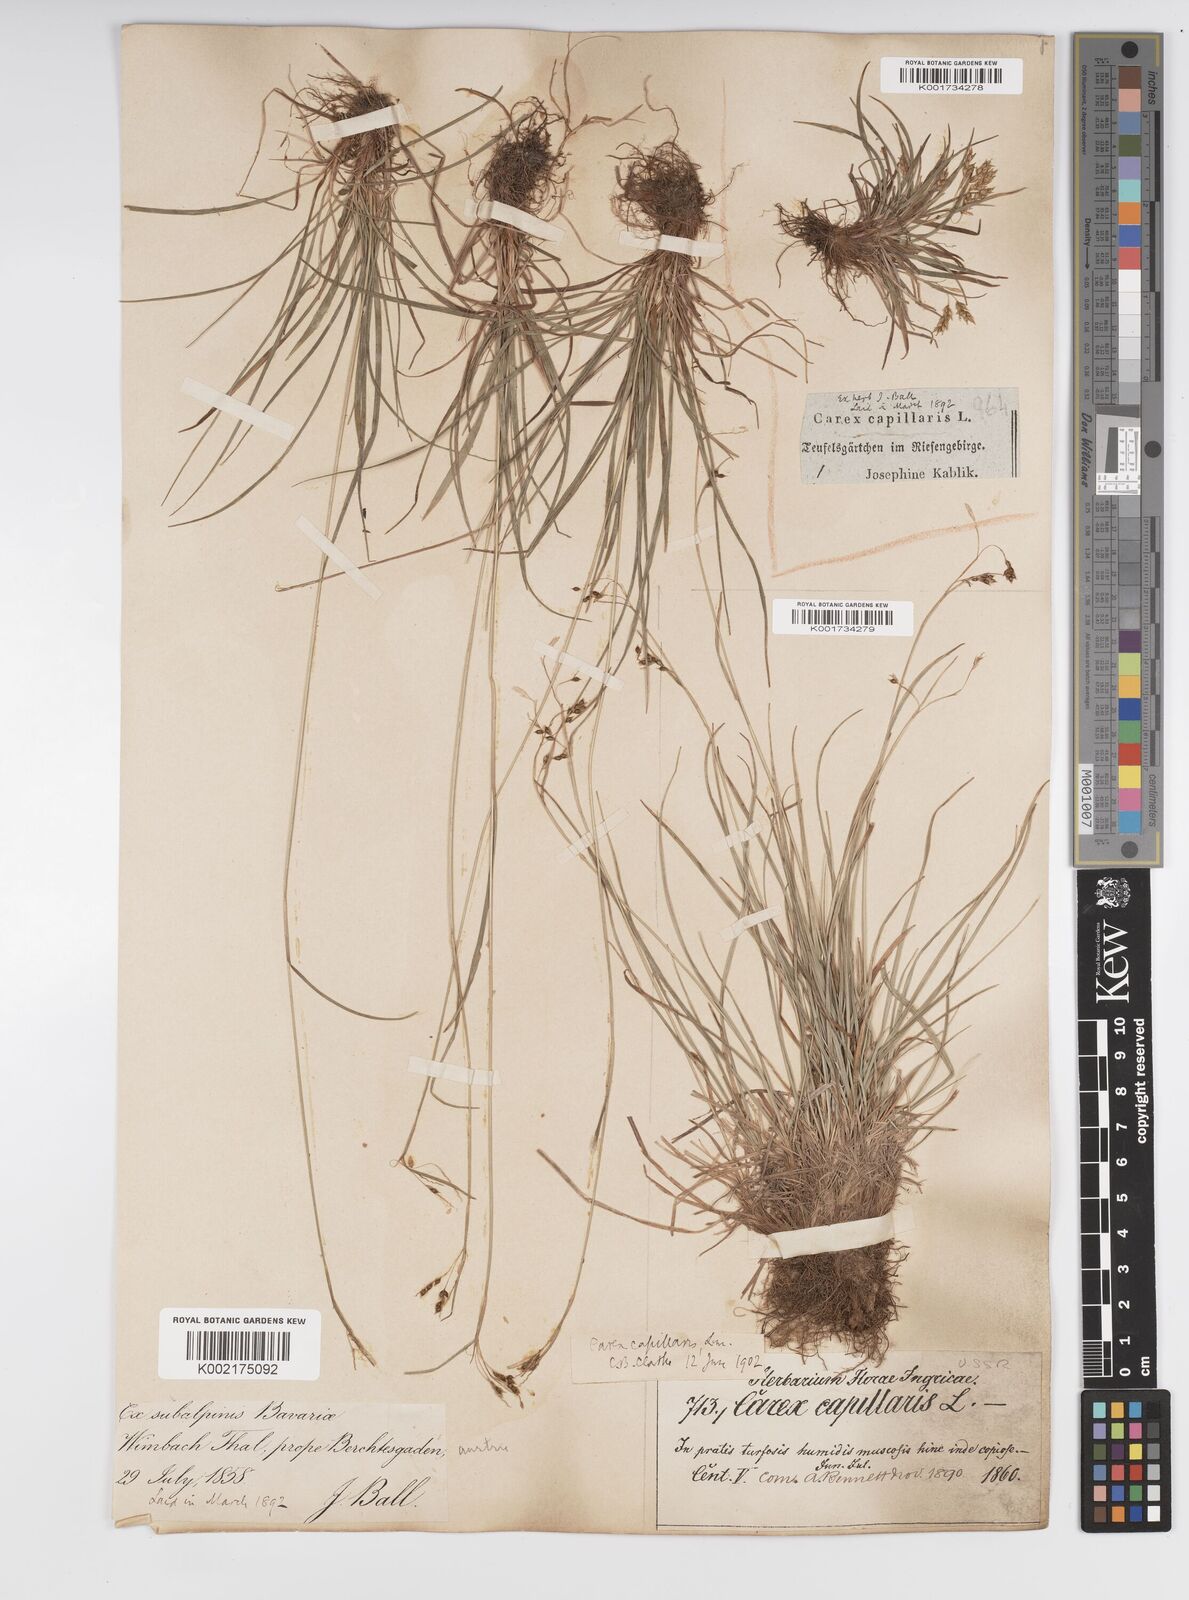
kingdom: Plantae
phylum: Tracheophyta
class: Liliopsida
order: Poales
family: Cyperaceae
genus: Carex
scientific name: Carex capillaris
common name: Hair sedge
